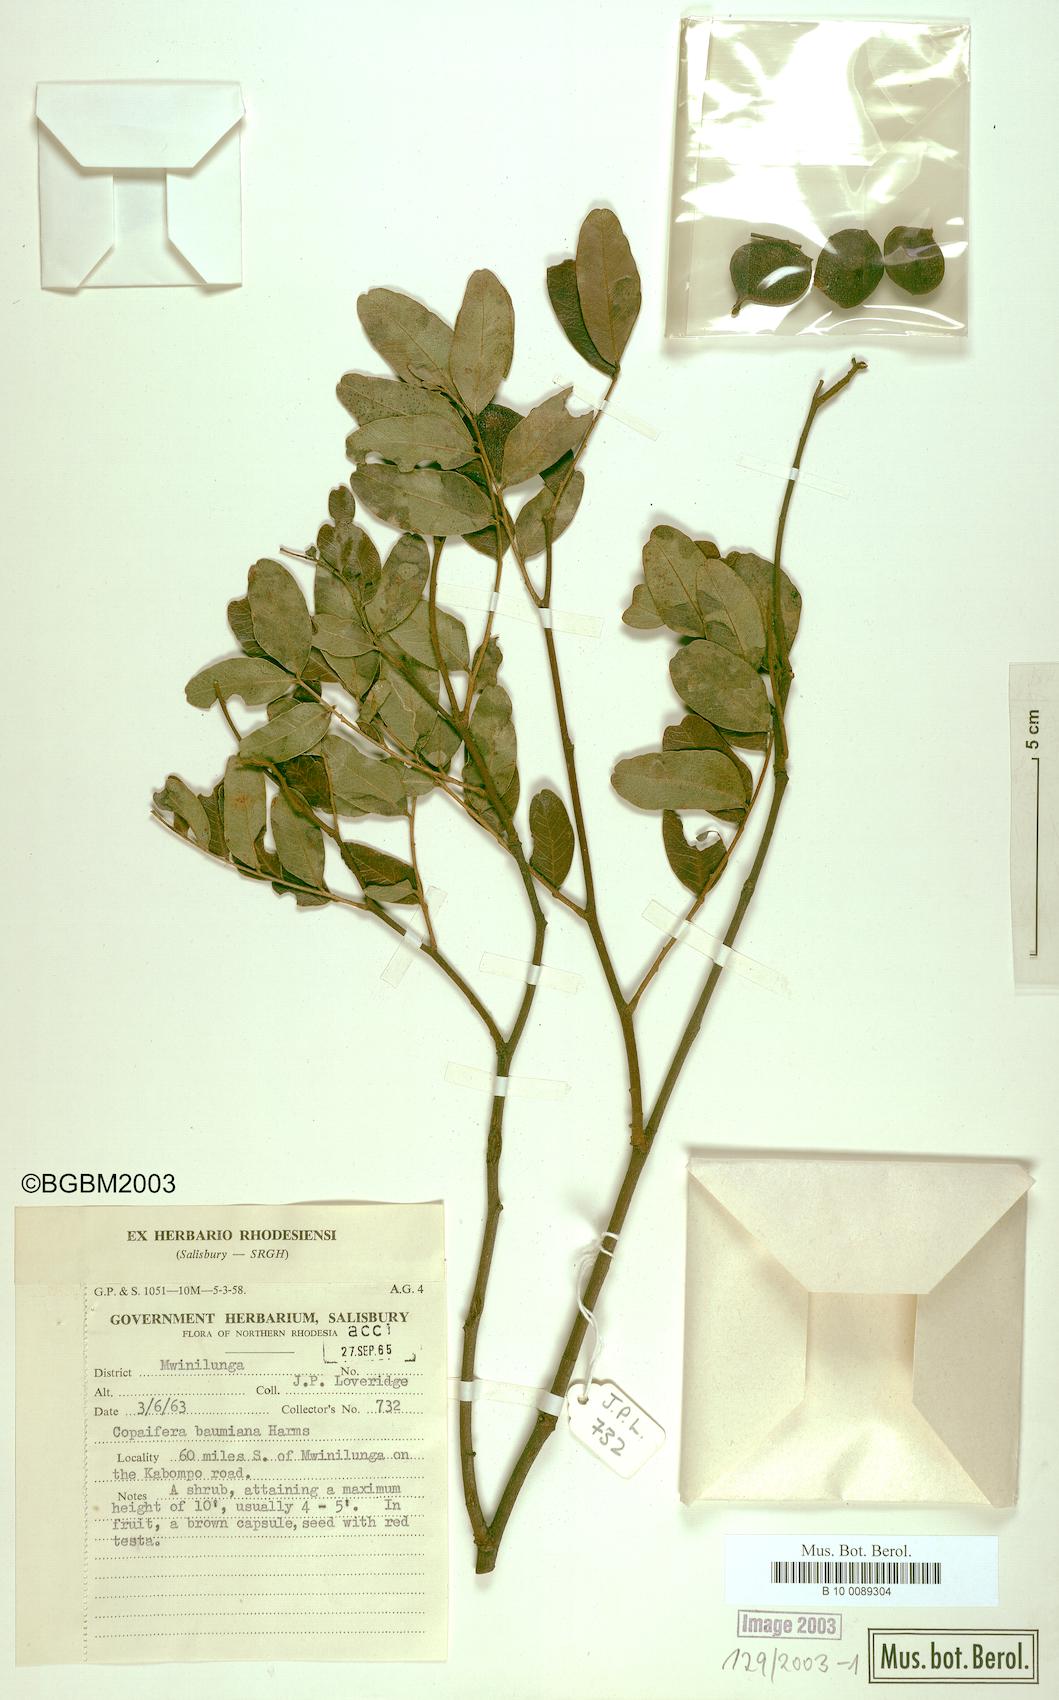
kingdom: Plantae
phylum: Tracheophyta
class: Magnoliopsida
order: Fabales
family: Fabaceae
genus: Copaifera
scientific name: Copaifera baumiana
